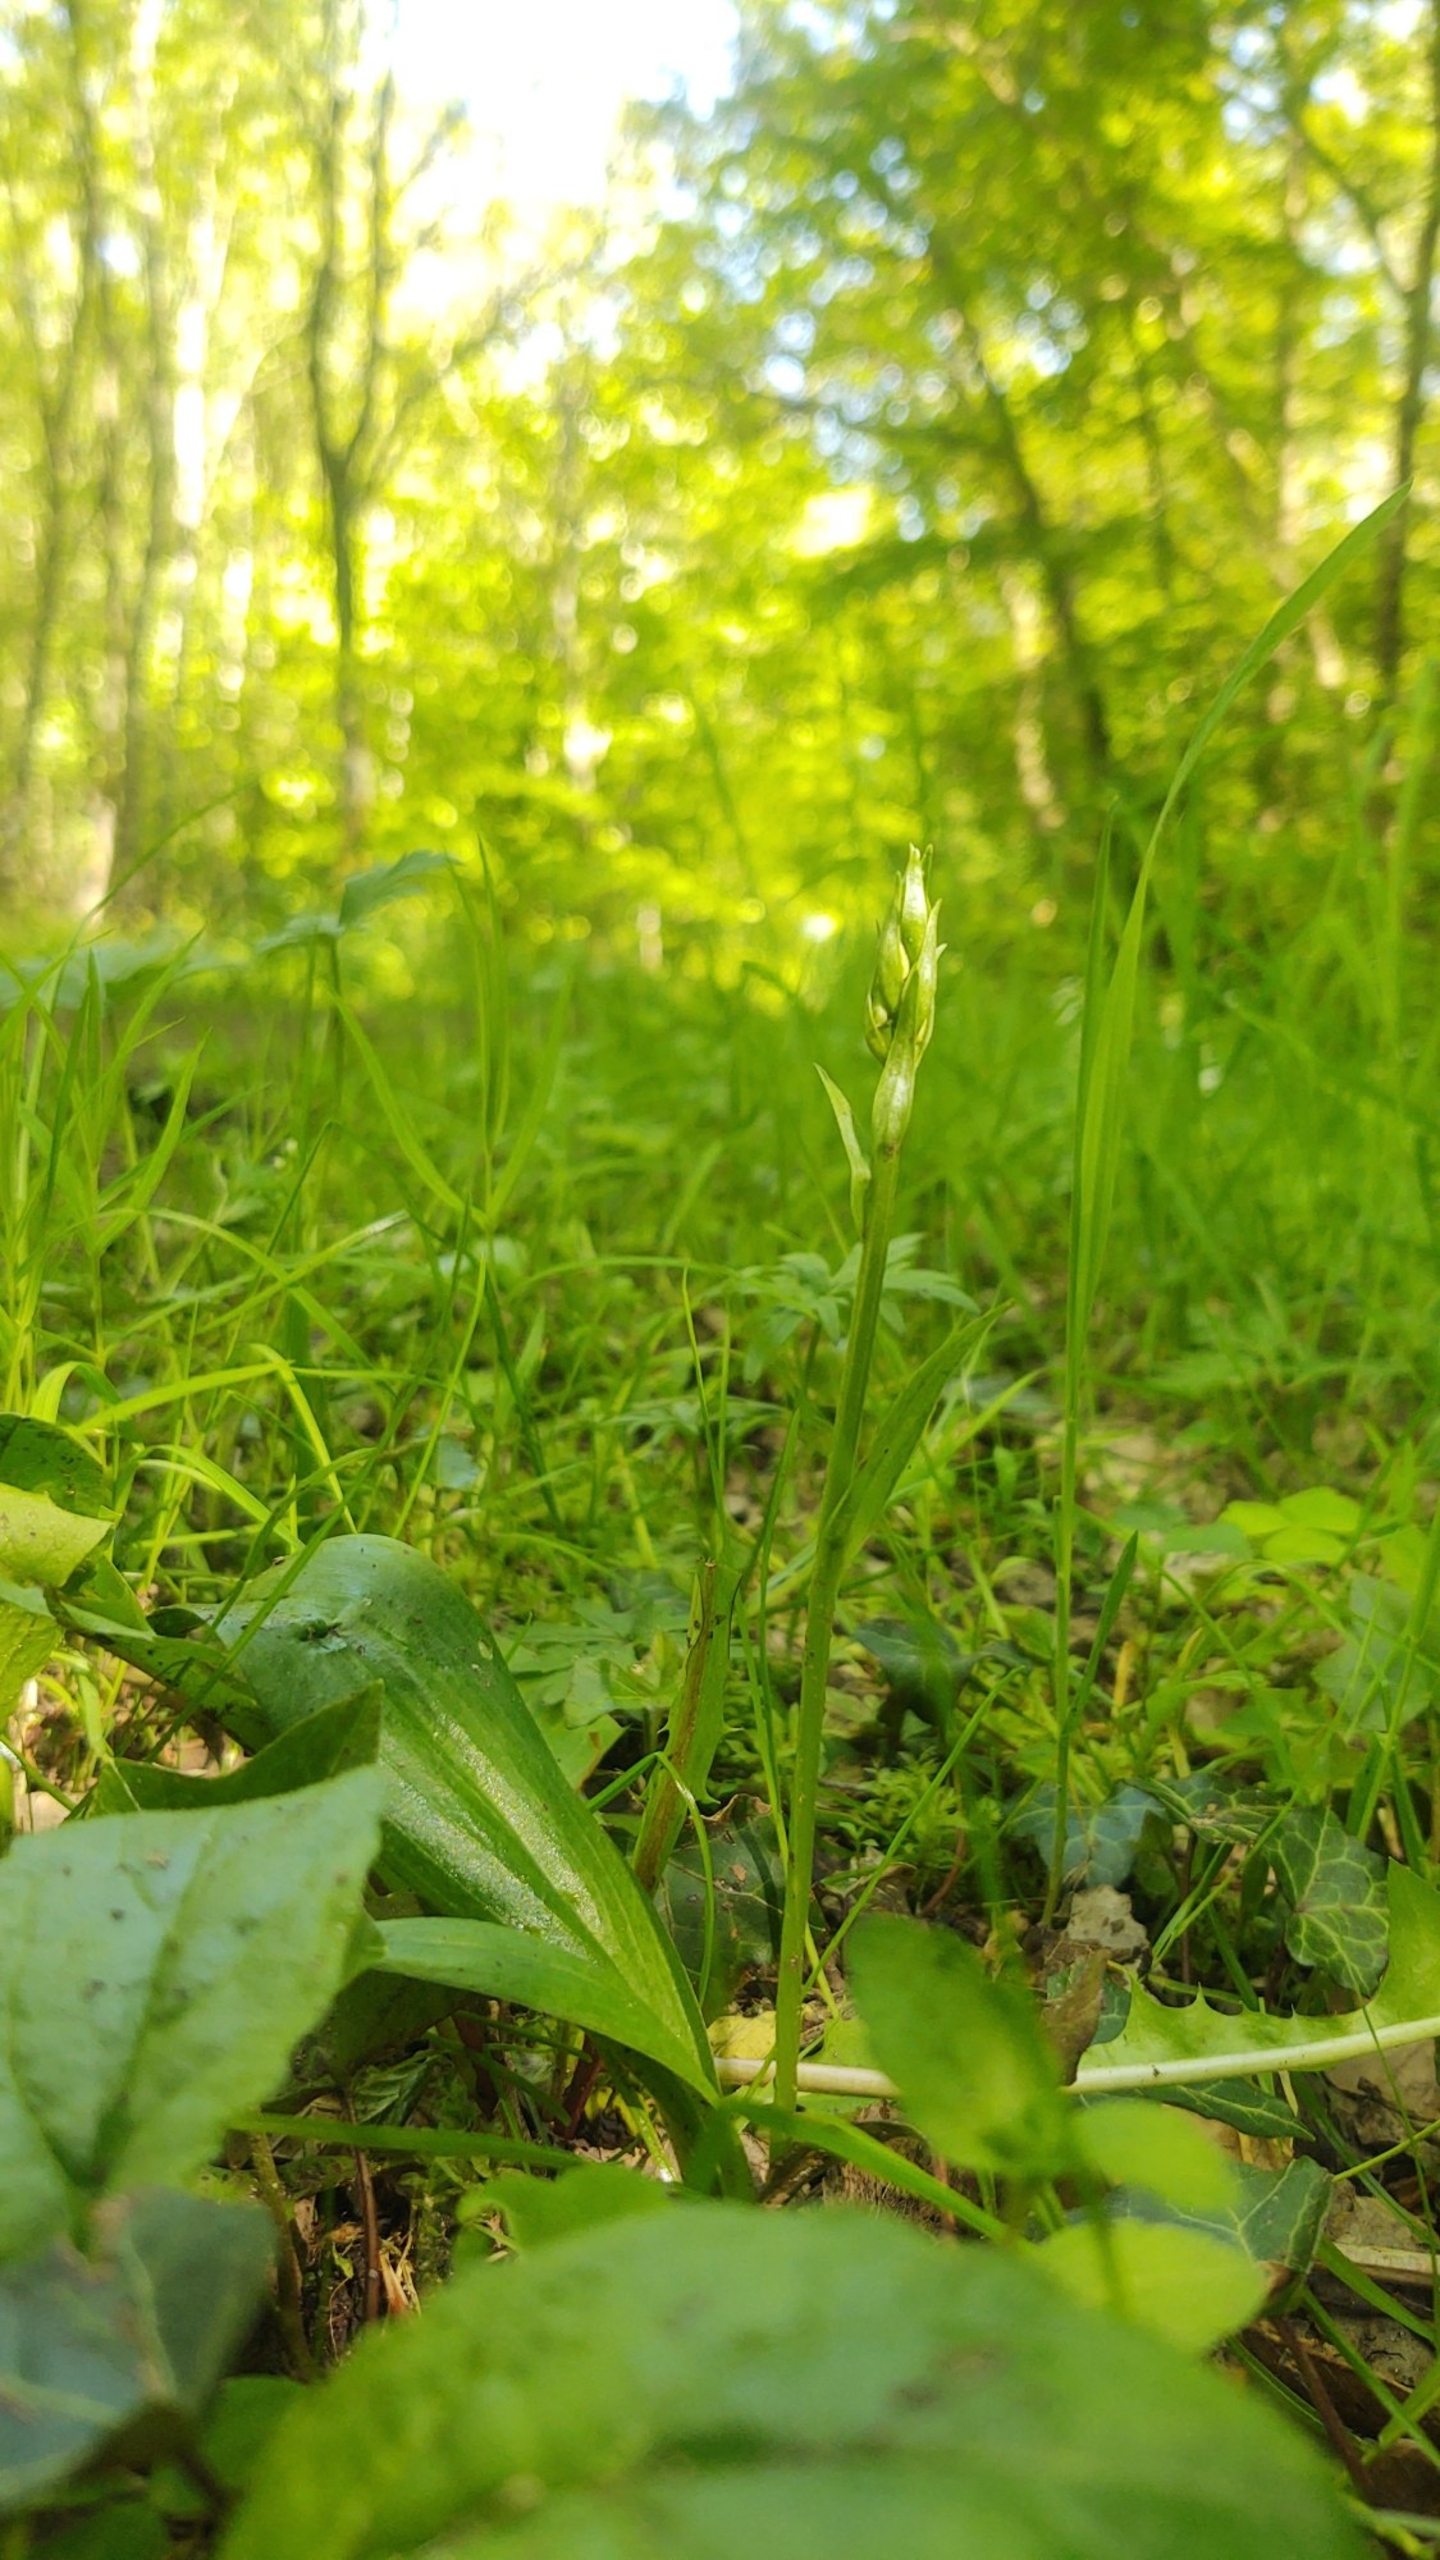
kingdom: Plantae
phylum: Tracheophyta
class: Liliopsida
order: Asparagales
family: Orchidaceae
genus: Platanthera
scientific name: Platanthera
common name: Gøgeliljeslægten
